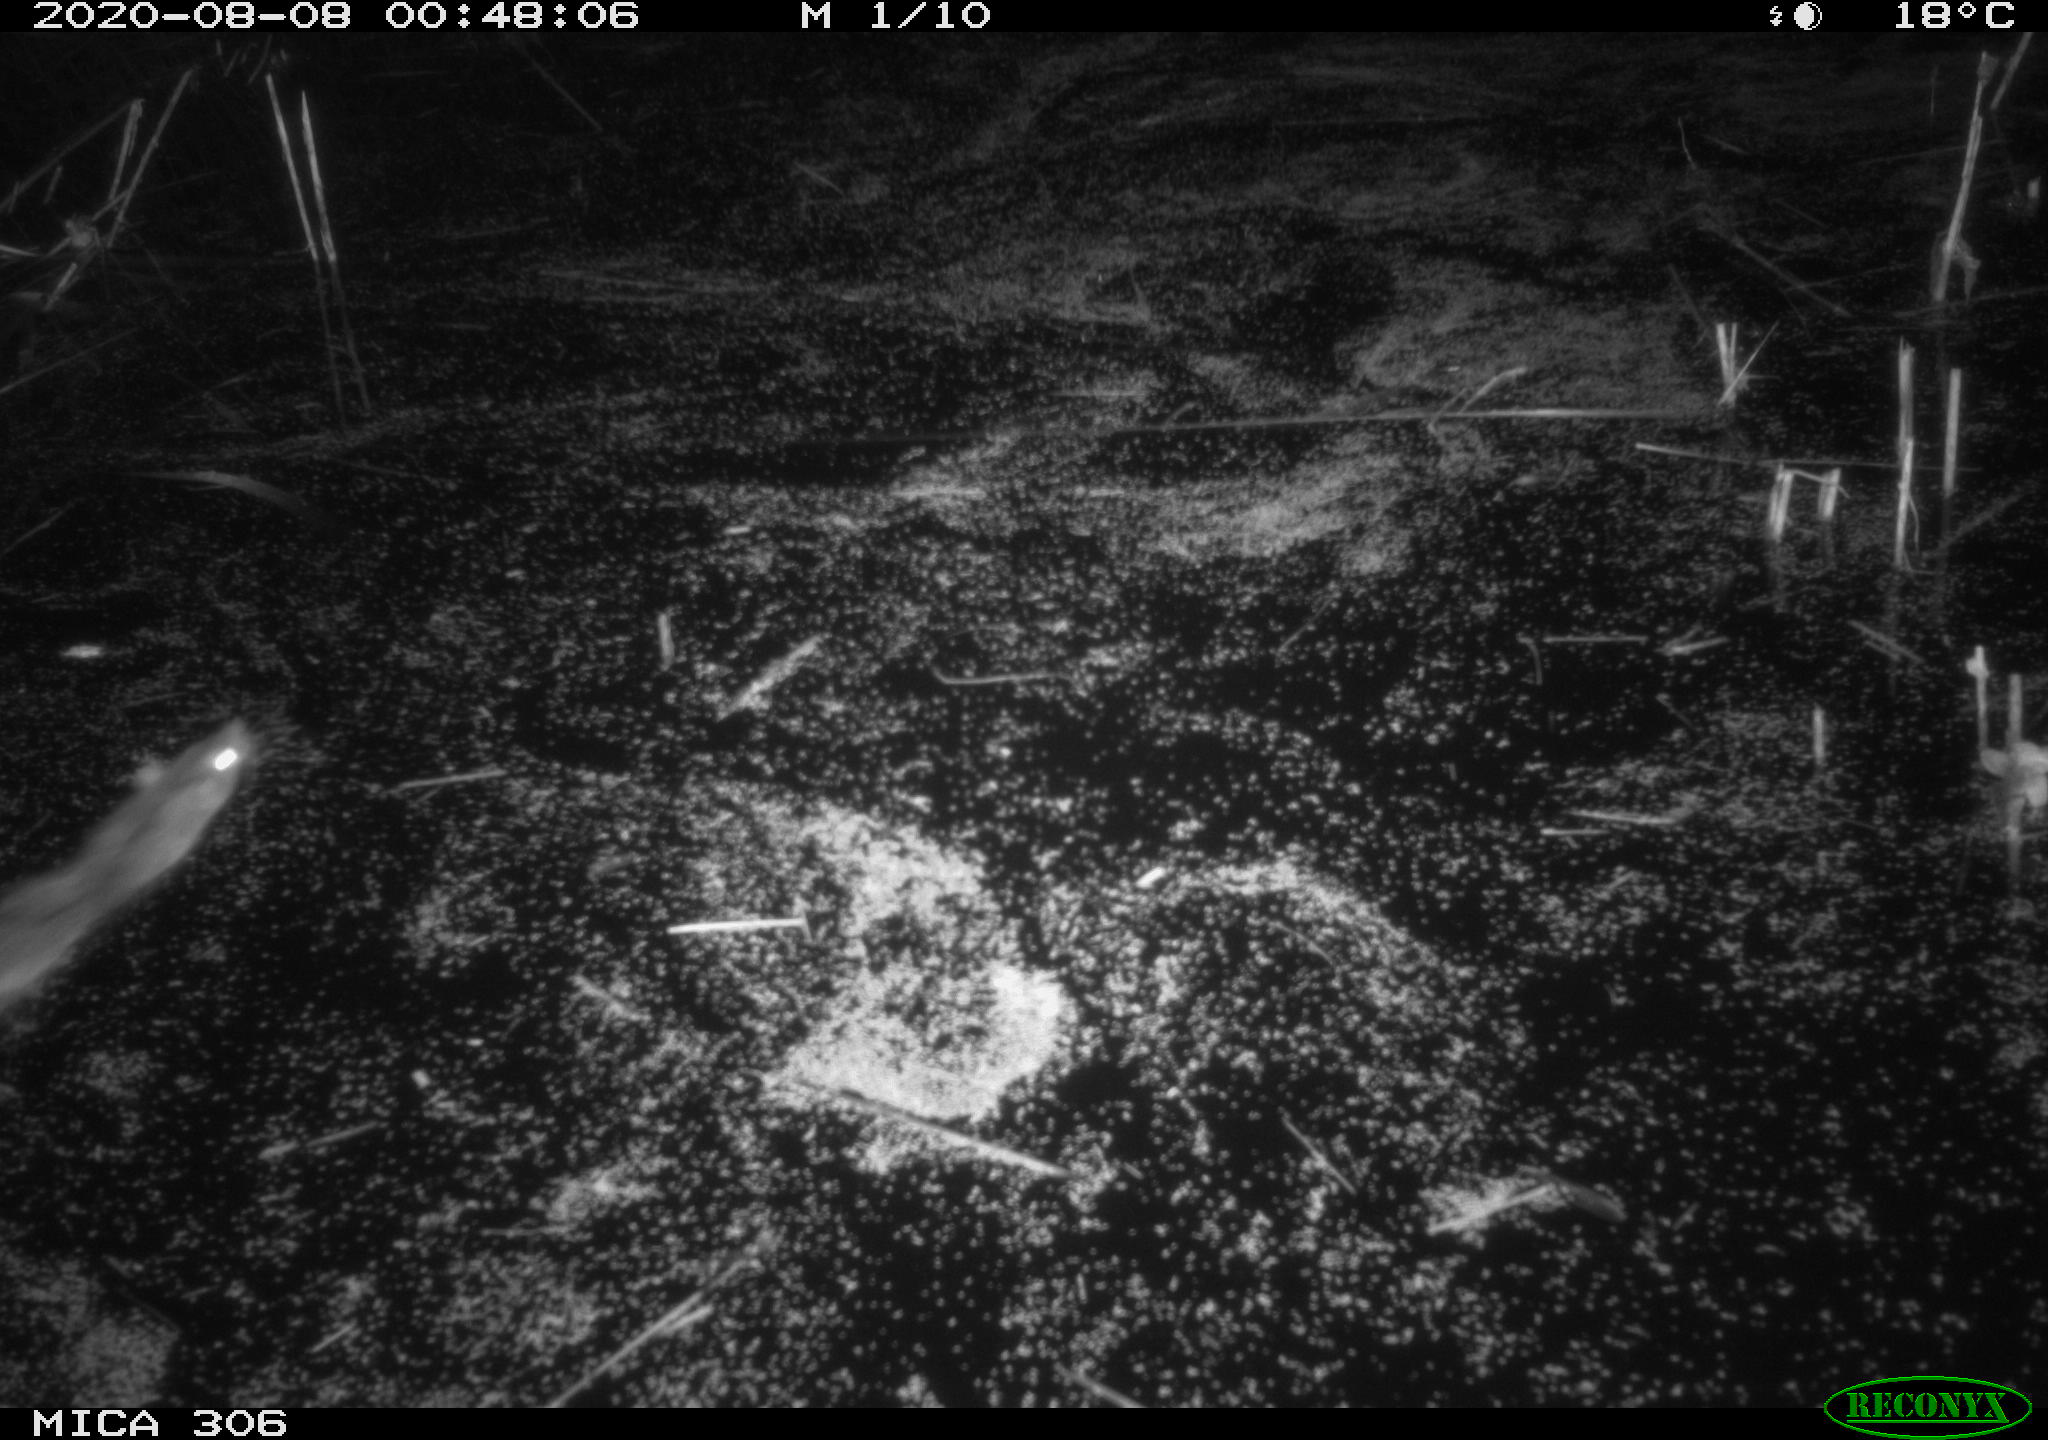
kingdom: Animalia
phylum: Chordata
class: Mammalia
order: Rodentia
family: Muridae
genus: Rattus
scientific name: Rattus norvegicus
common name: Brown rat
